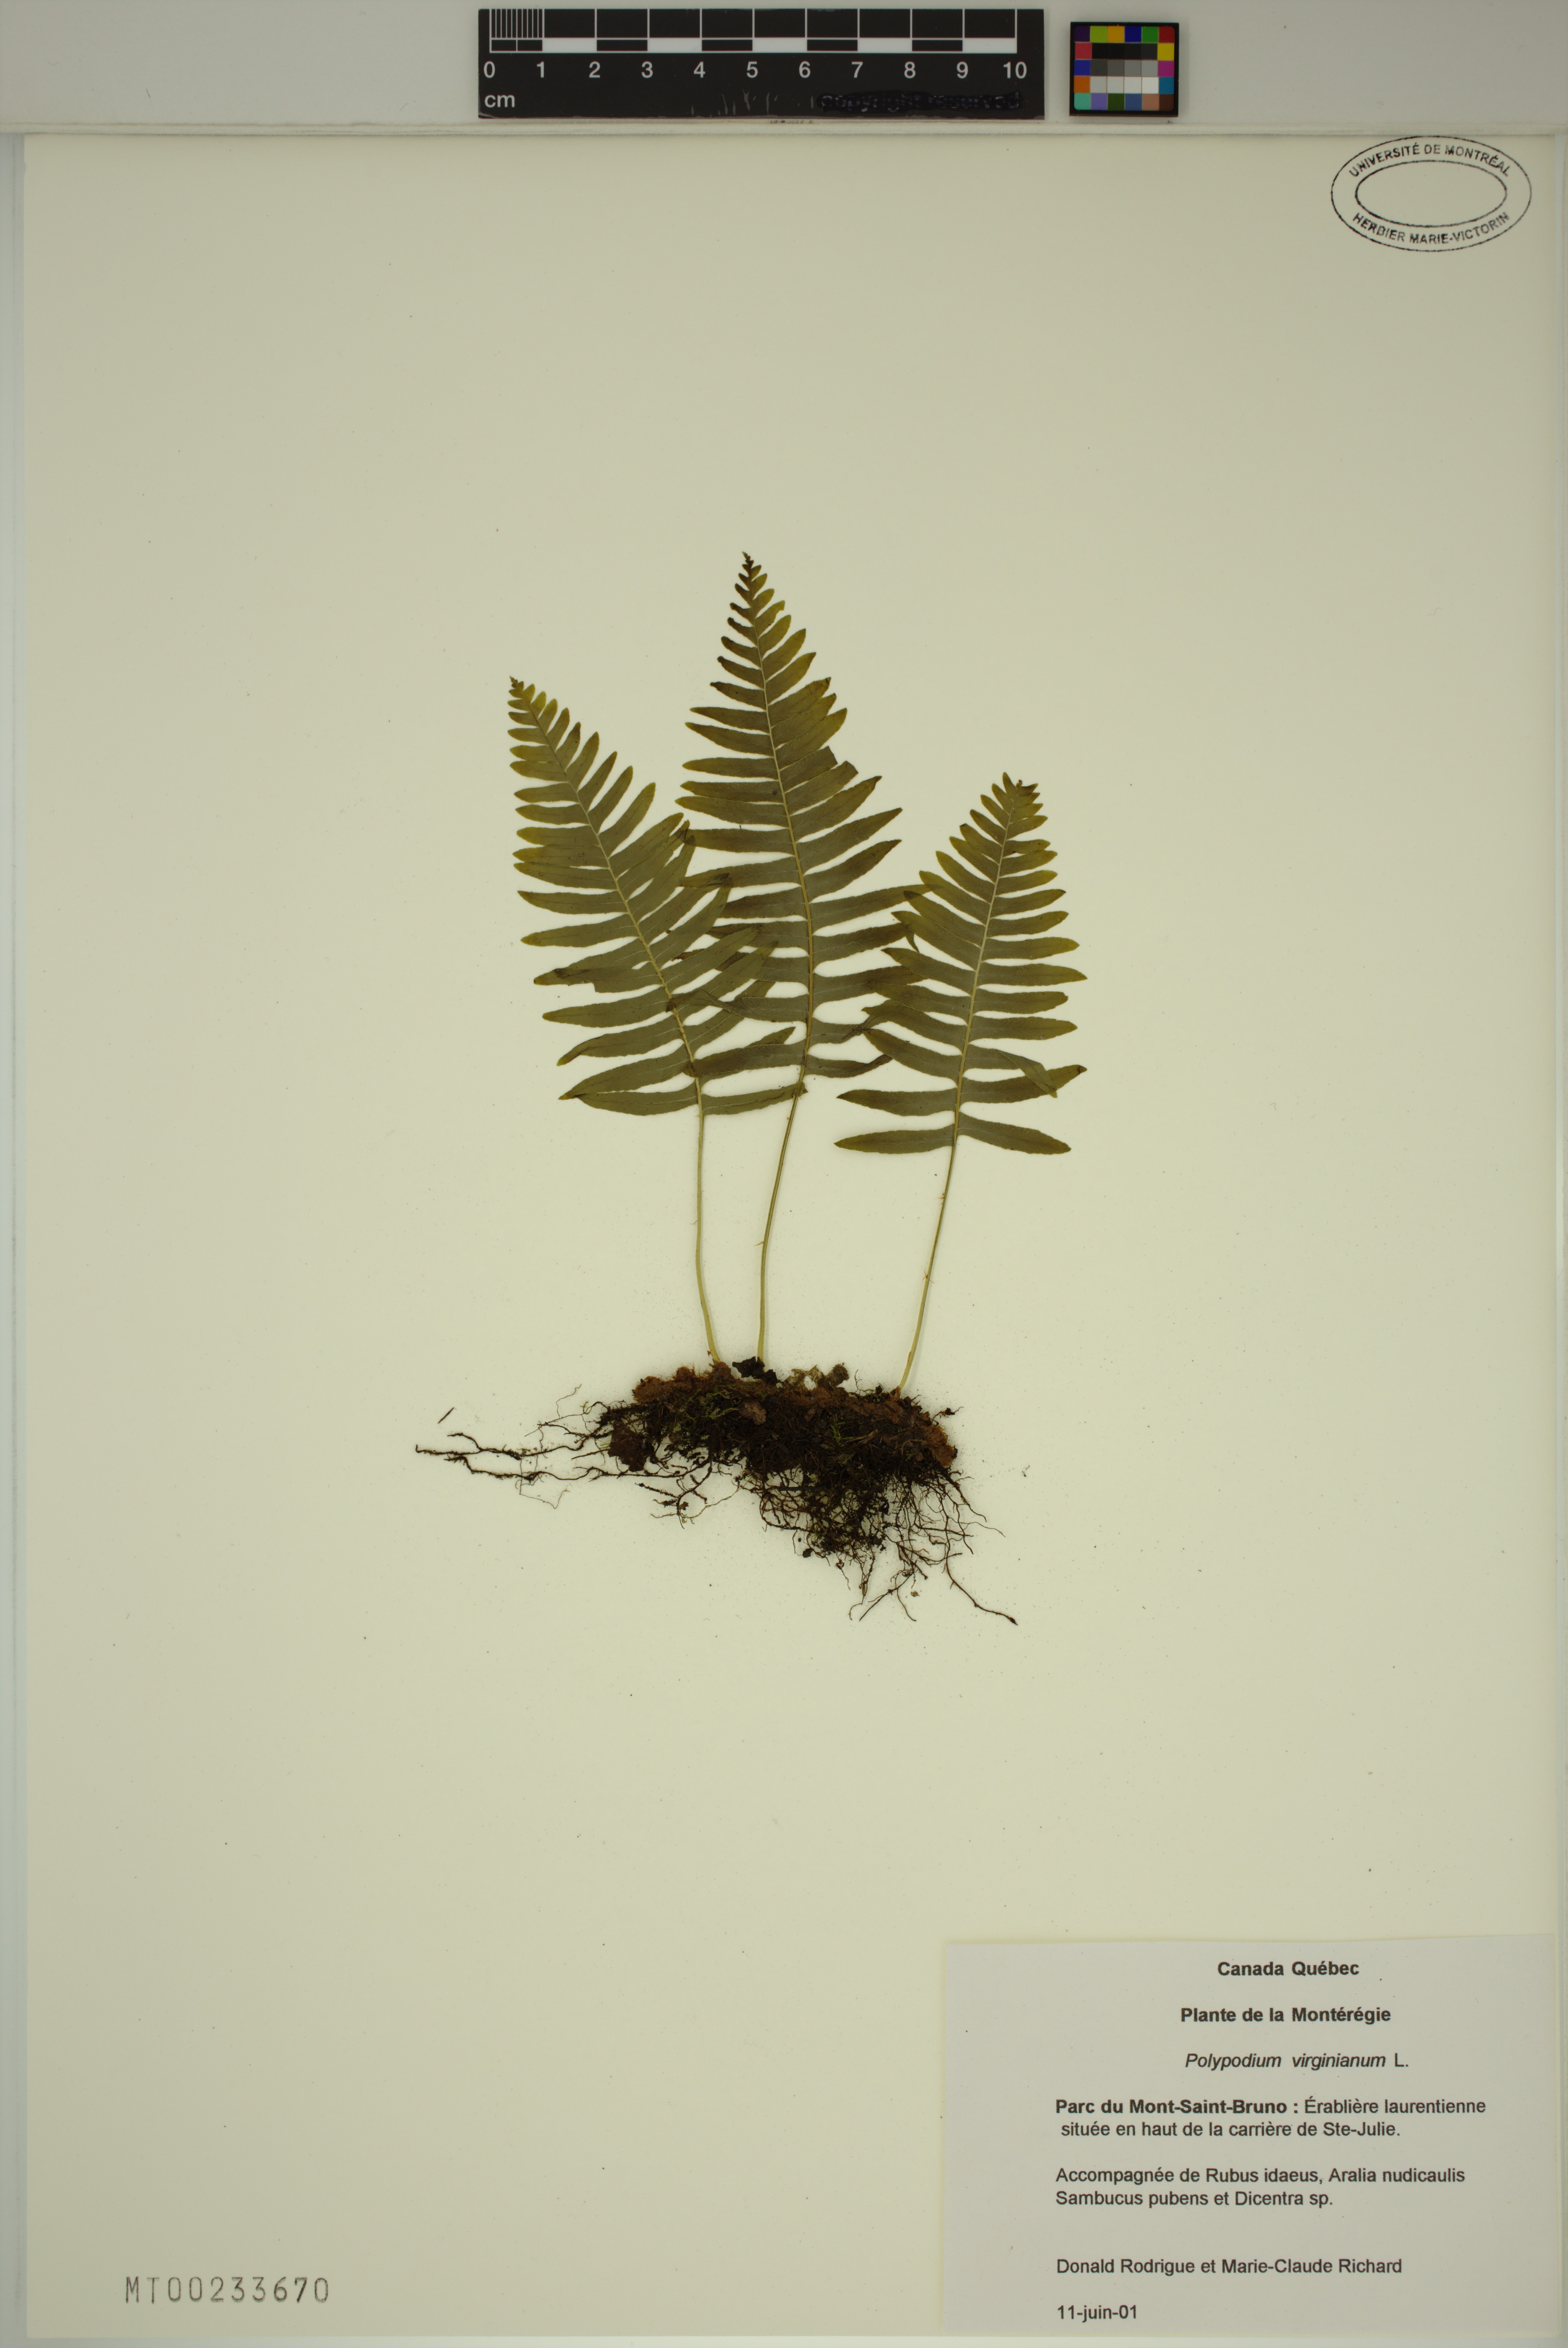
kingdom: Plantae
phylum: Tracheophyta
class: Polypodiopsida
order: Polypodiales
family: Polypodiaceae
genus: Polypodium
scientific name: Polypodium virginianum
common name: American wall fern
